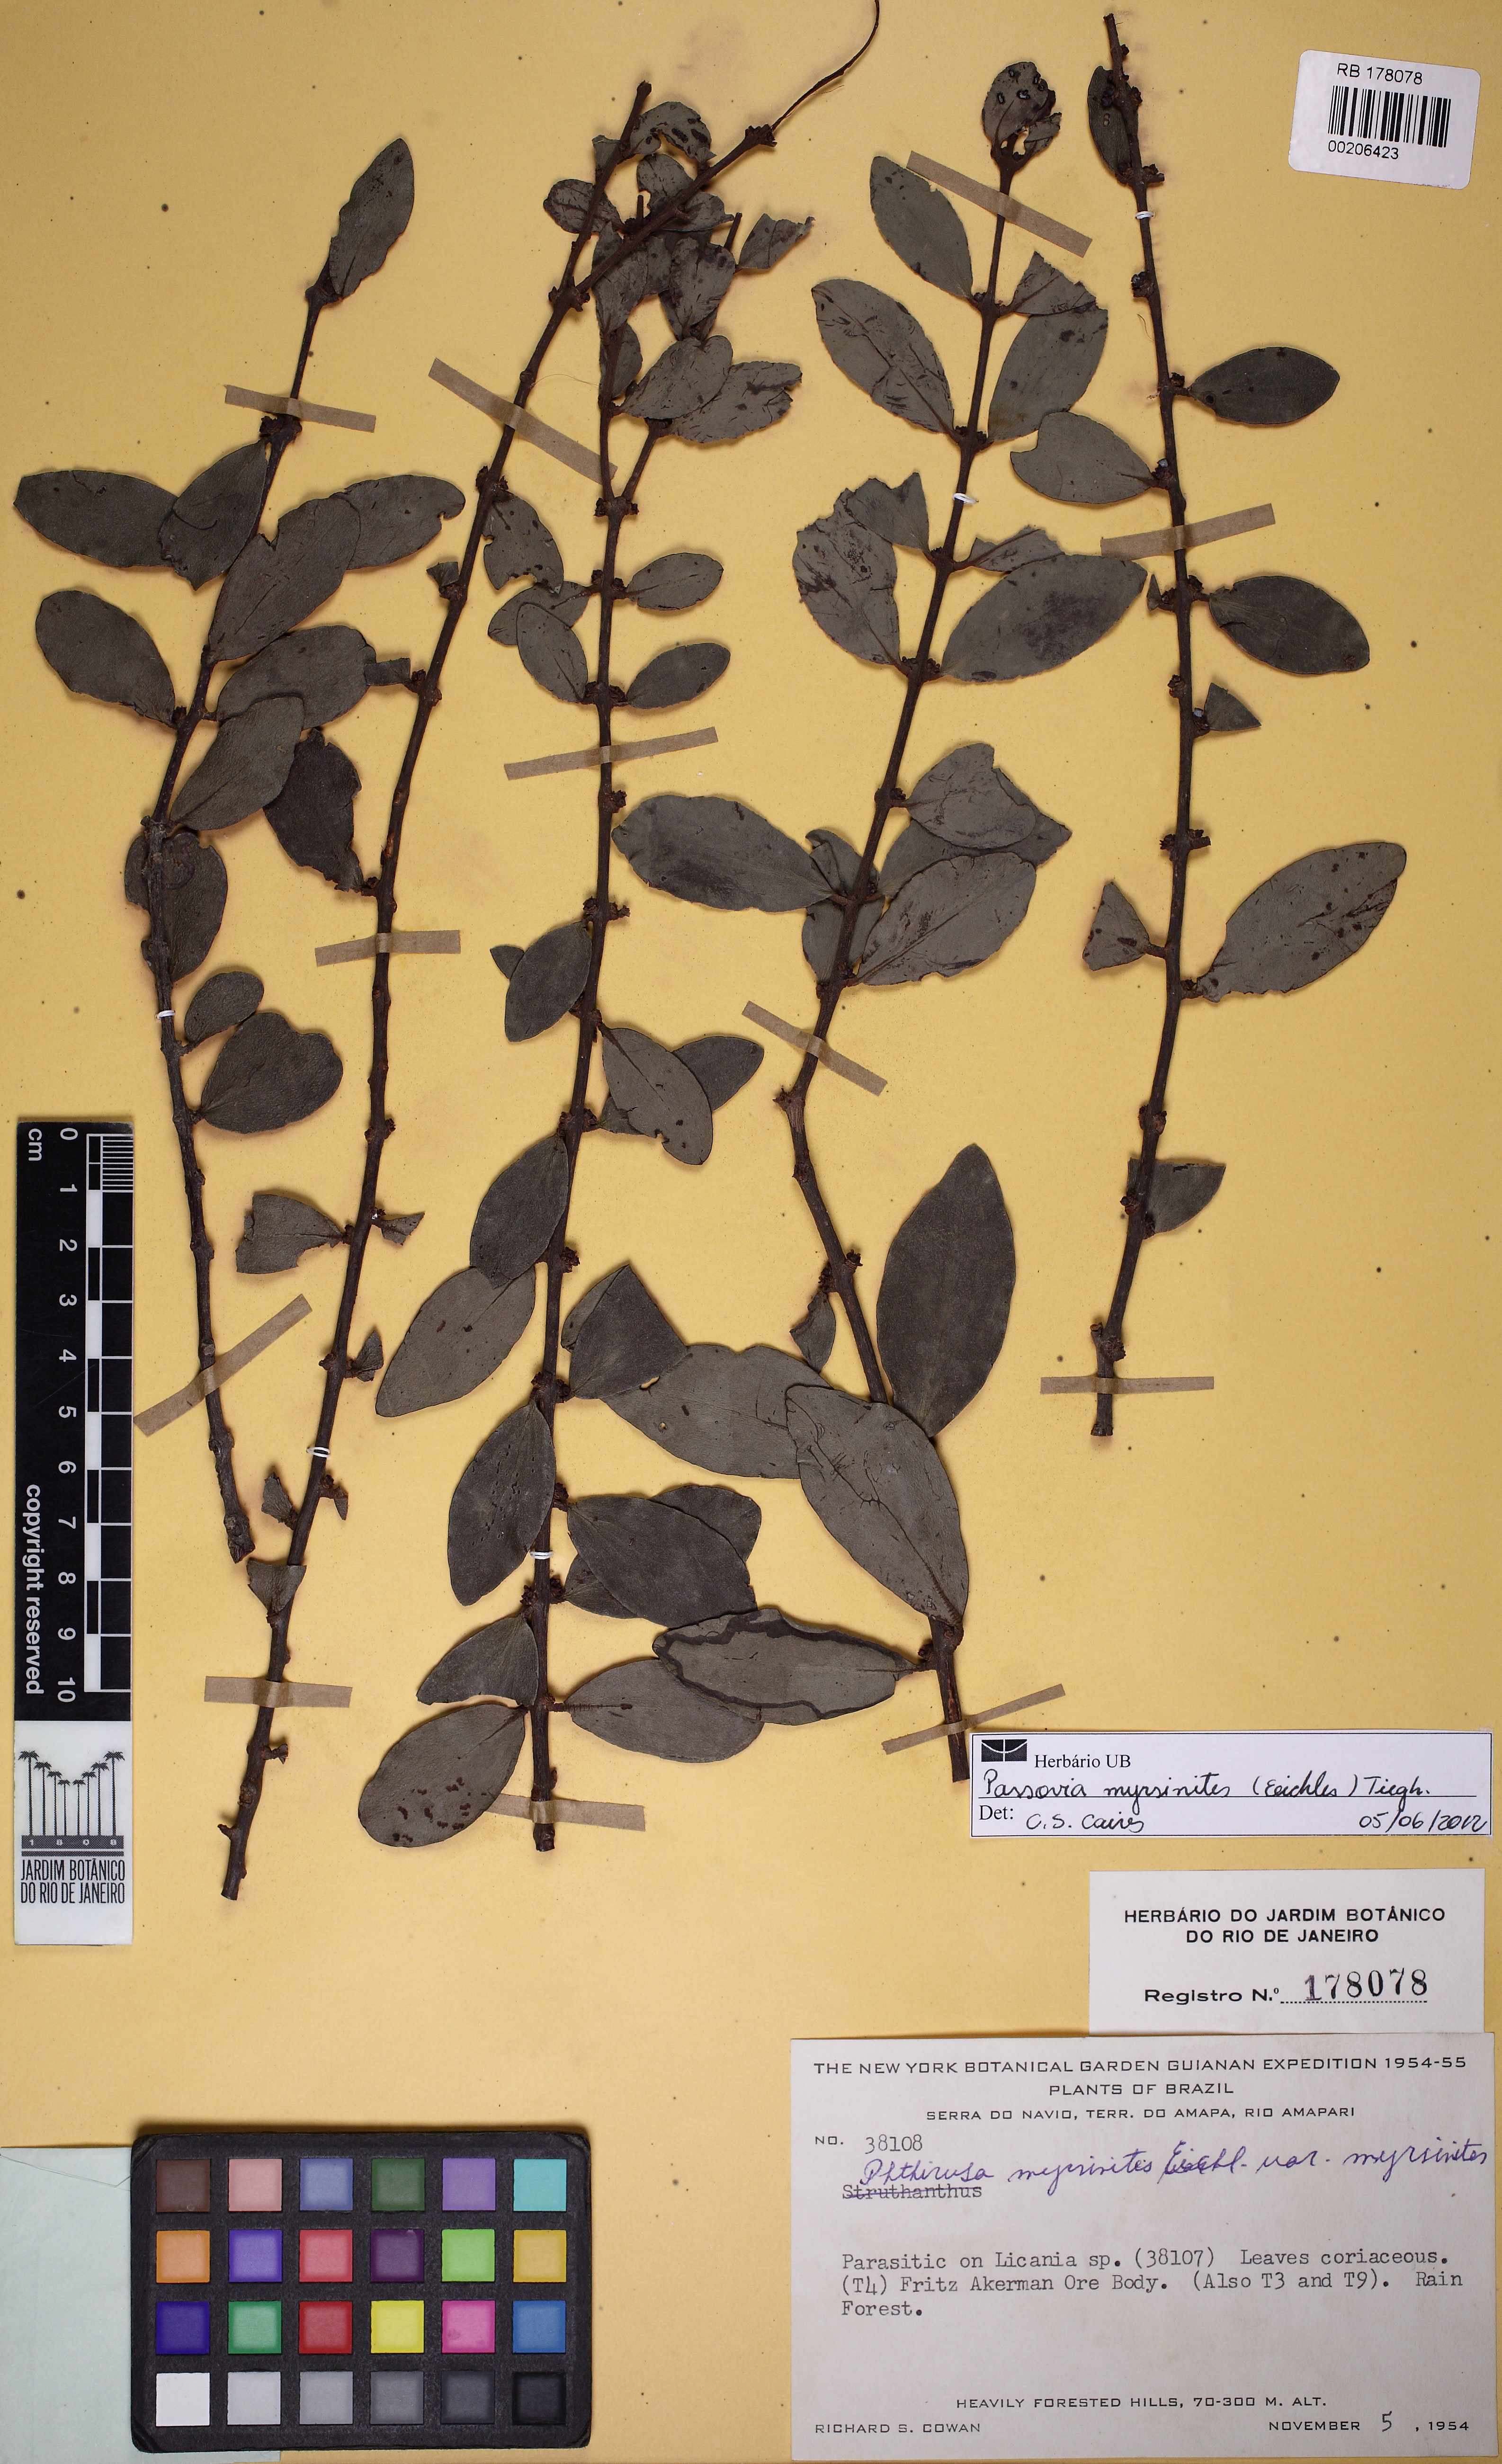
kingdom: Plantae
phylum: Tracheophyta
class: Magnoliopsida
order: Santalales
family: Loranthaceae
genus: Passovia
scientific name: Passovia myrsinites
